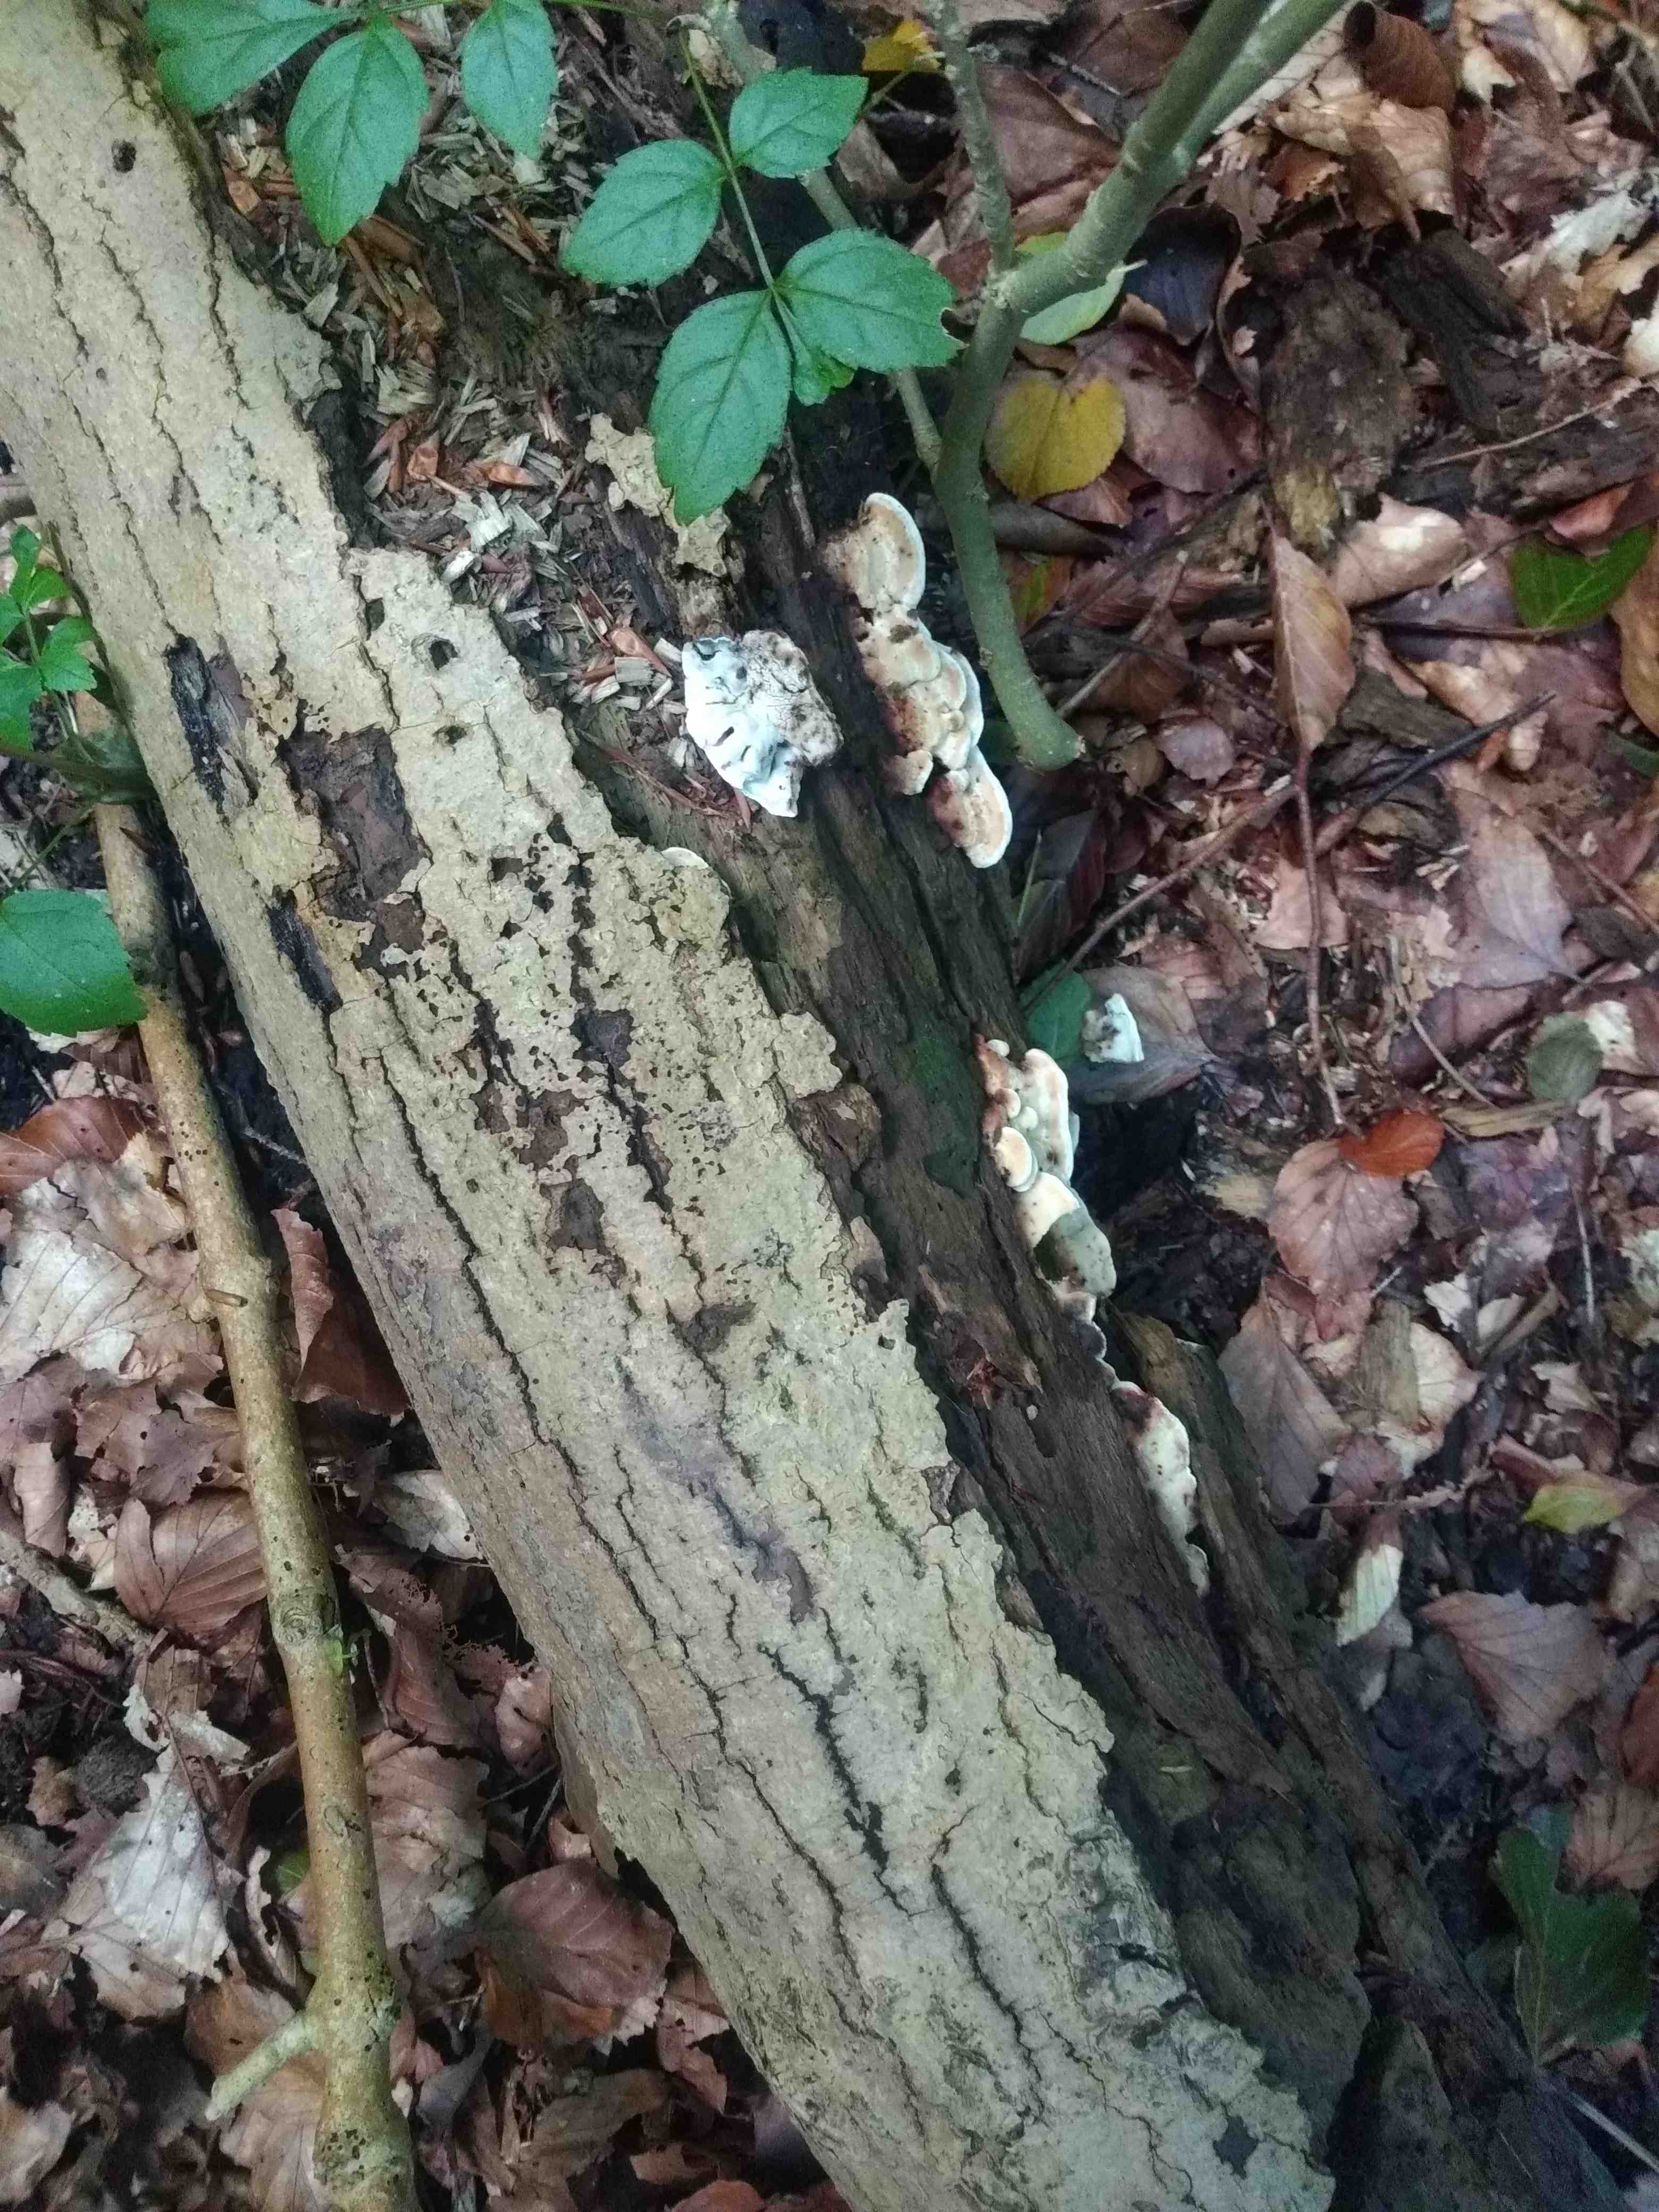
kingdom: Fungi
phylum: Basidiomycota
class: Agaricomycetes
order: Polyporales
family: Incrustoporiaceae
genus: Skeletocutis
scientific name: Skeletocutis nemoralis
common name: stor krystalporesvamp
